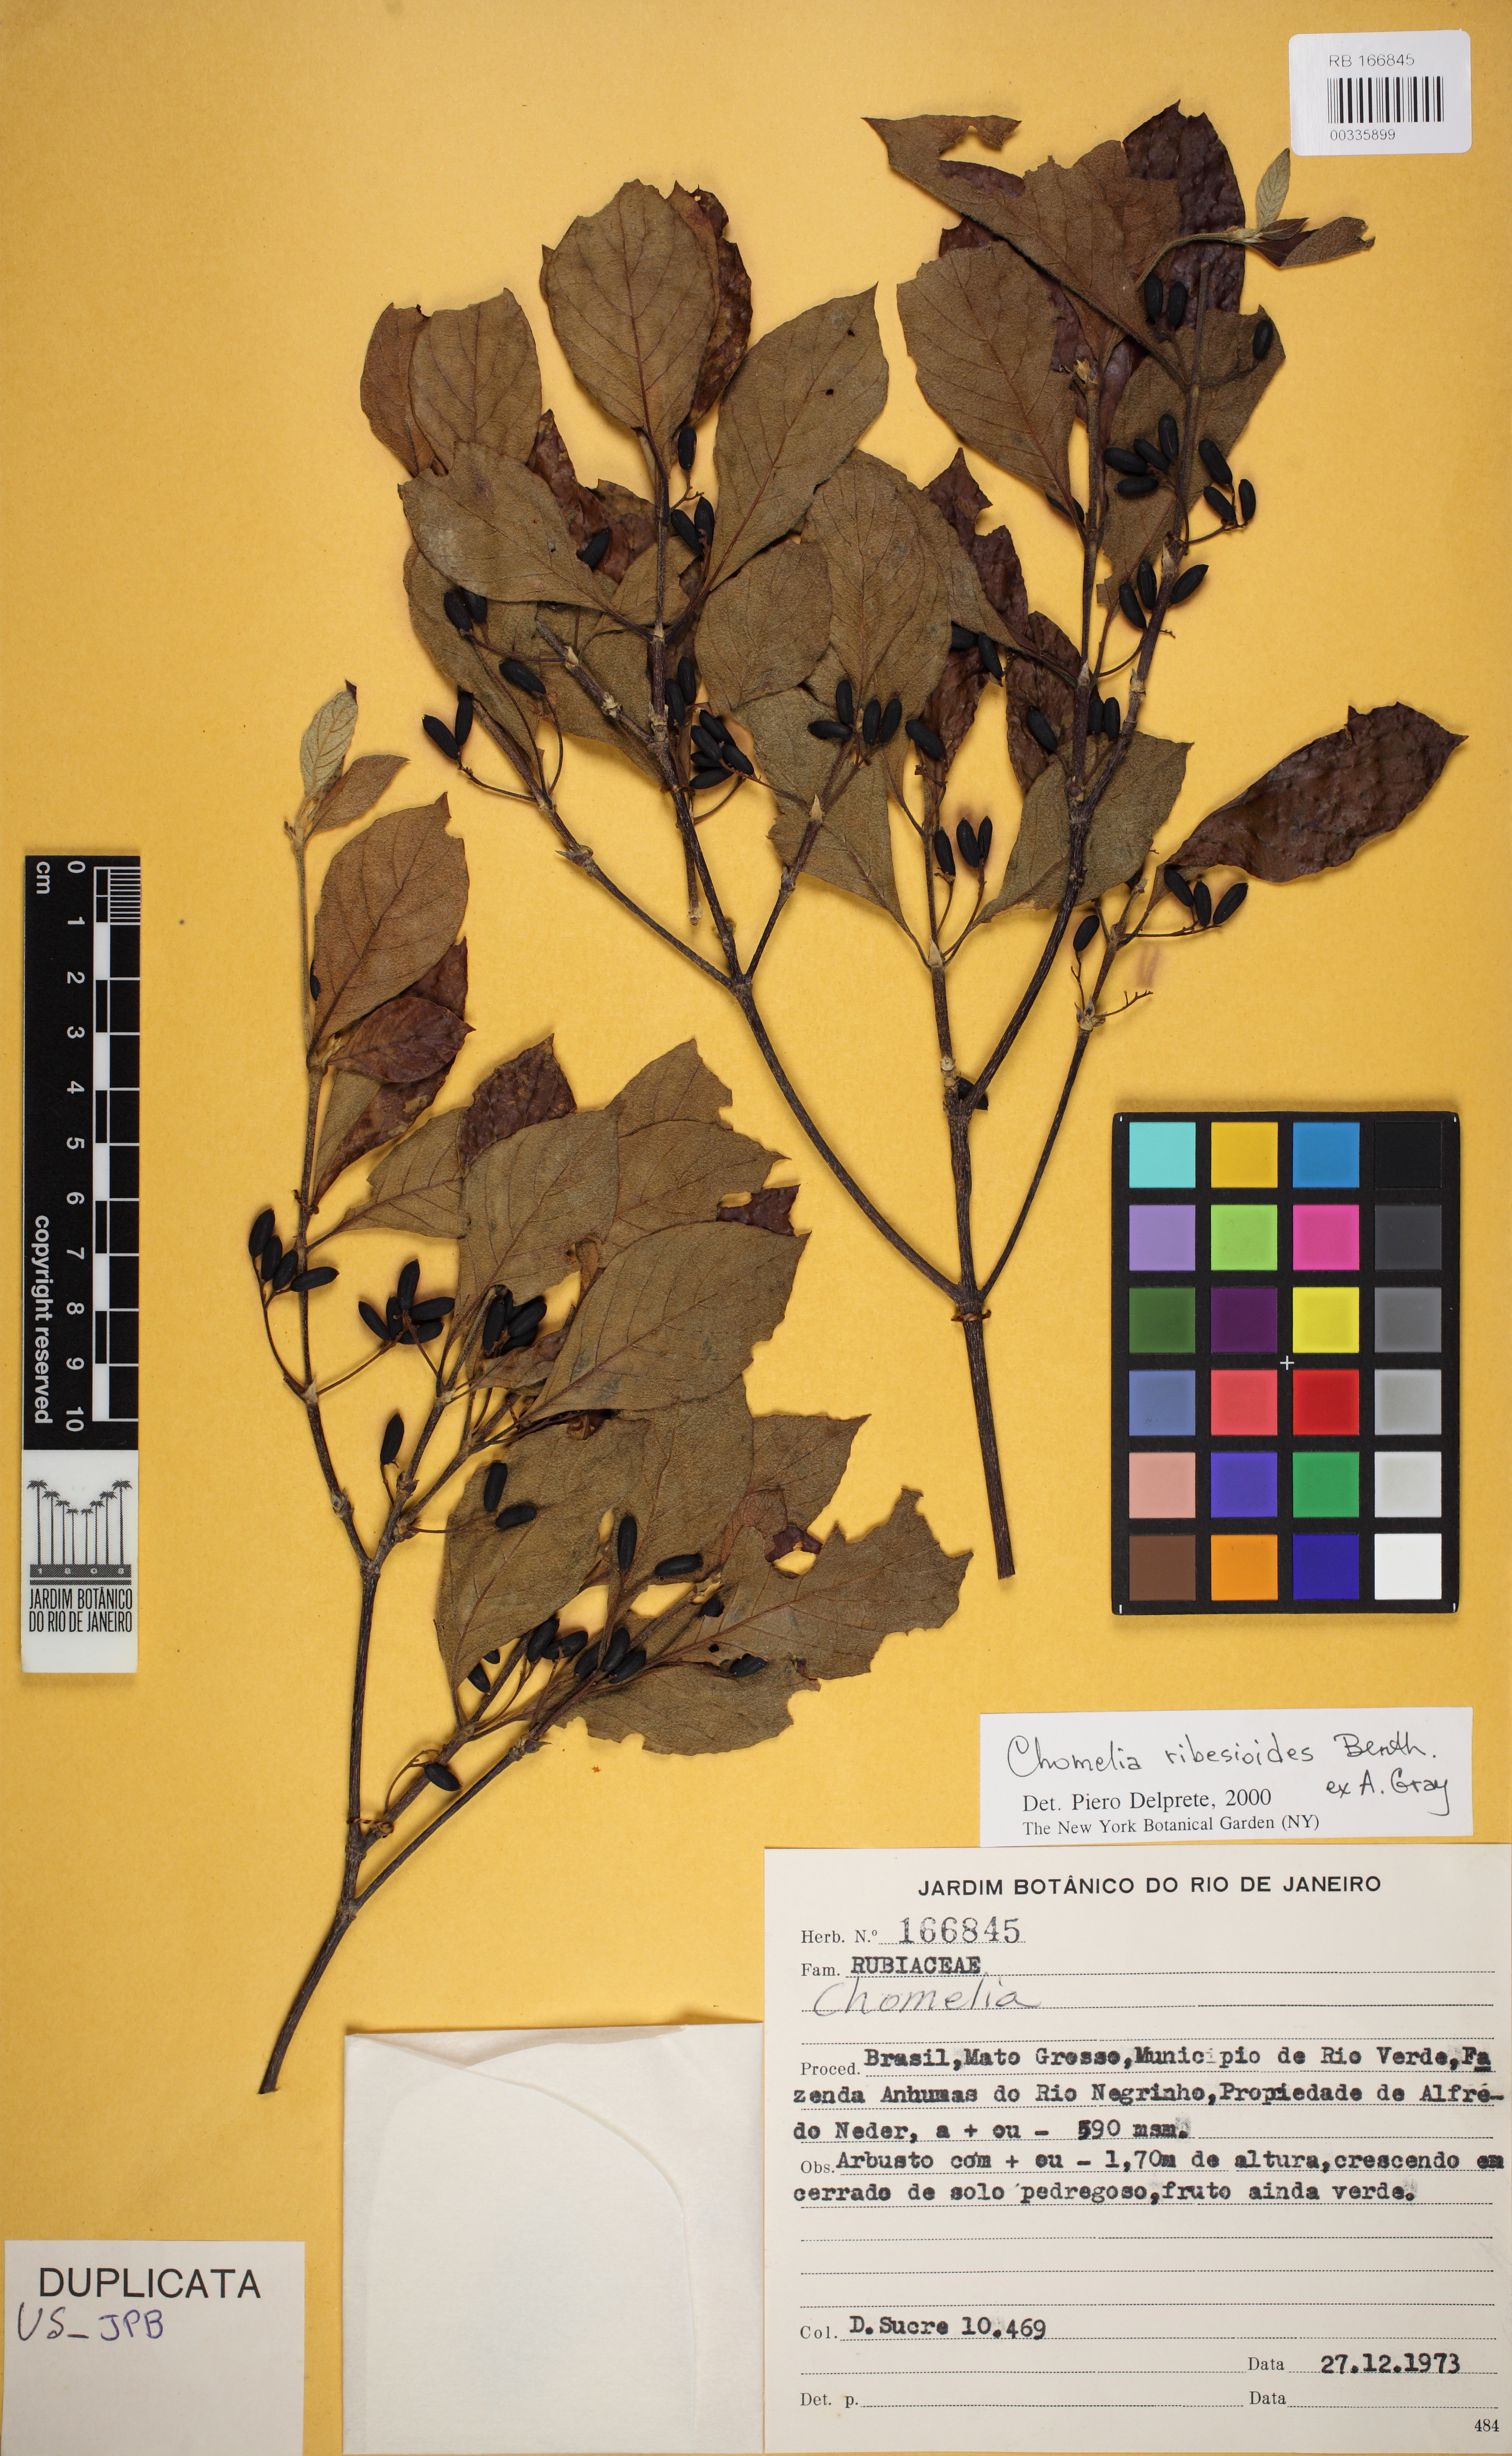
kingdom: Plantae
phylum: Tracheophyta
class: Magnoliopsida
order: Gentianales
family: Rubiaceae
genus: Chomelia
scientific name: Chomelia ribesioides
